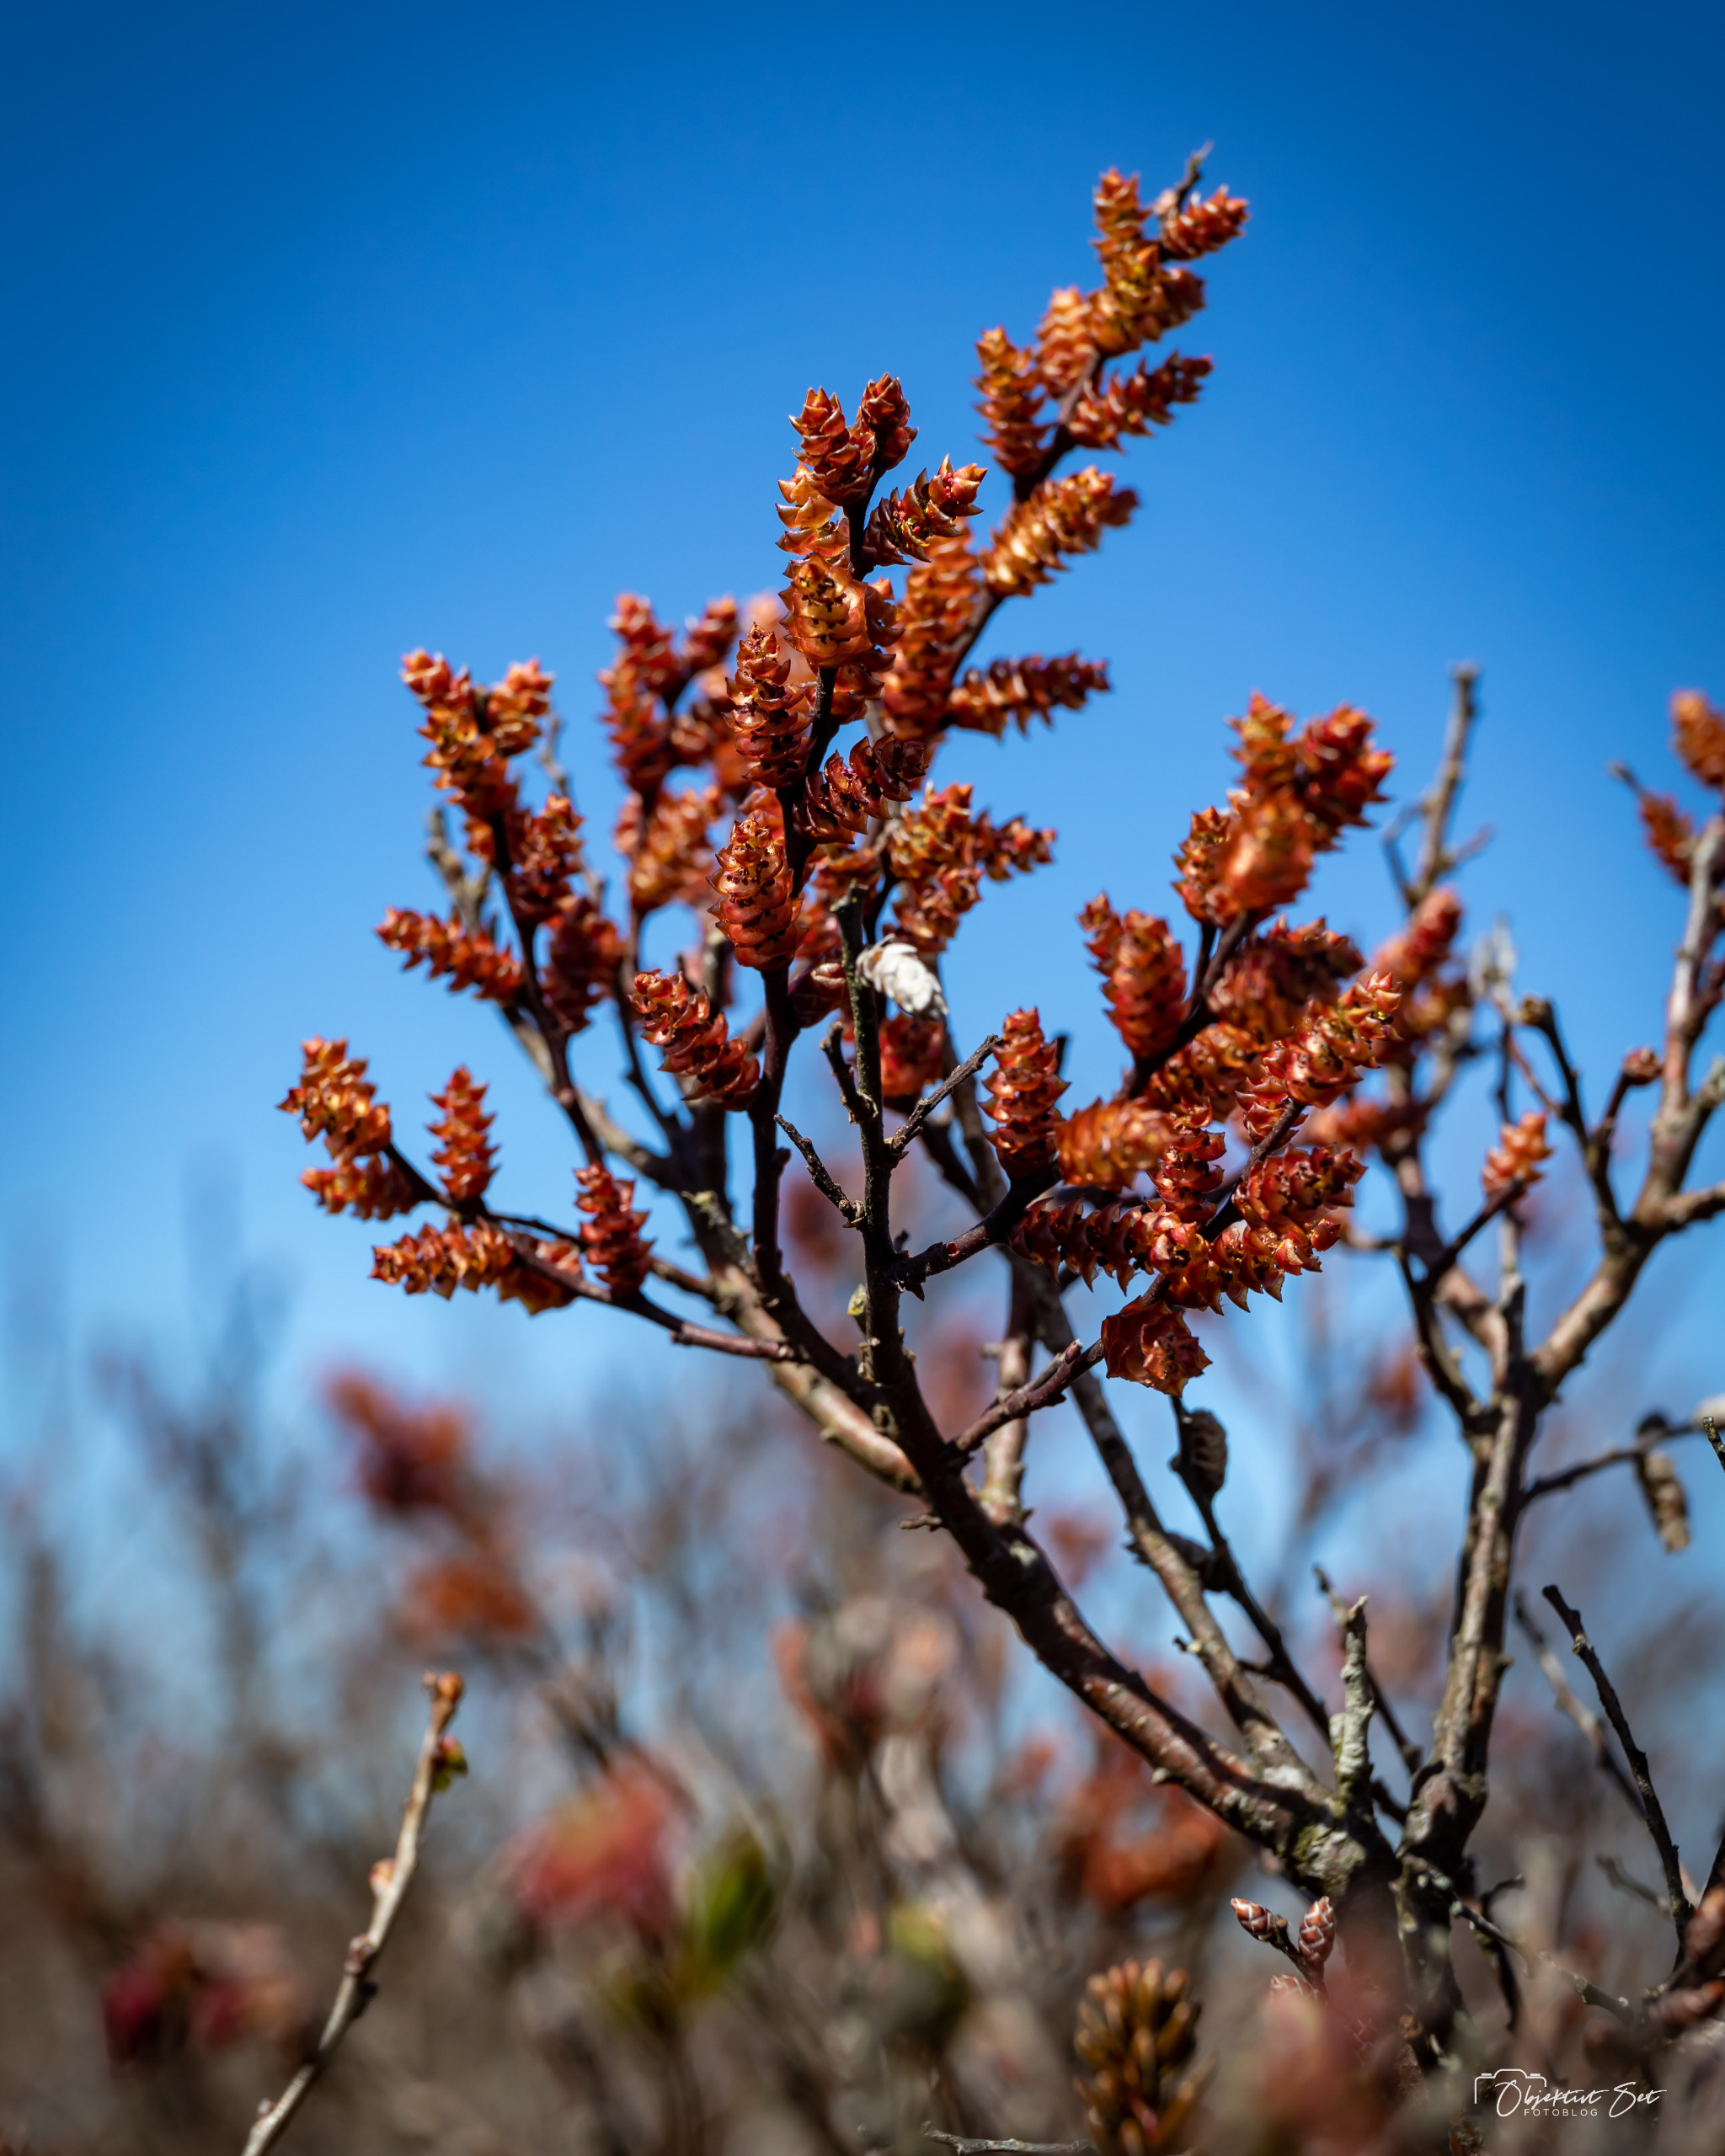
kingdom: Plantae
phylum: Tracheophyta
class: Magnoliopsida
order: Fagales
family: Myricaceae
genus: Myrica
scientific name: Myrica gale
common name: Pors
